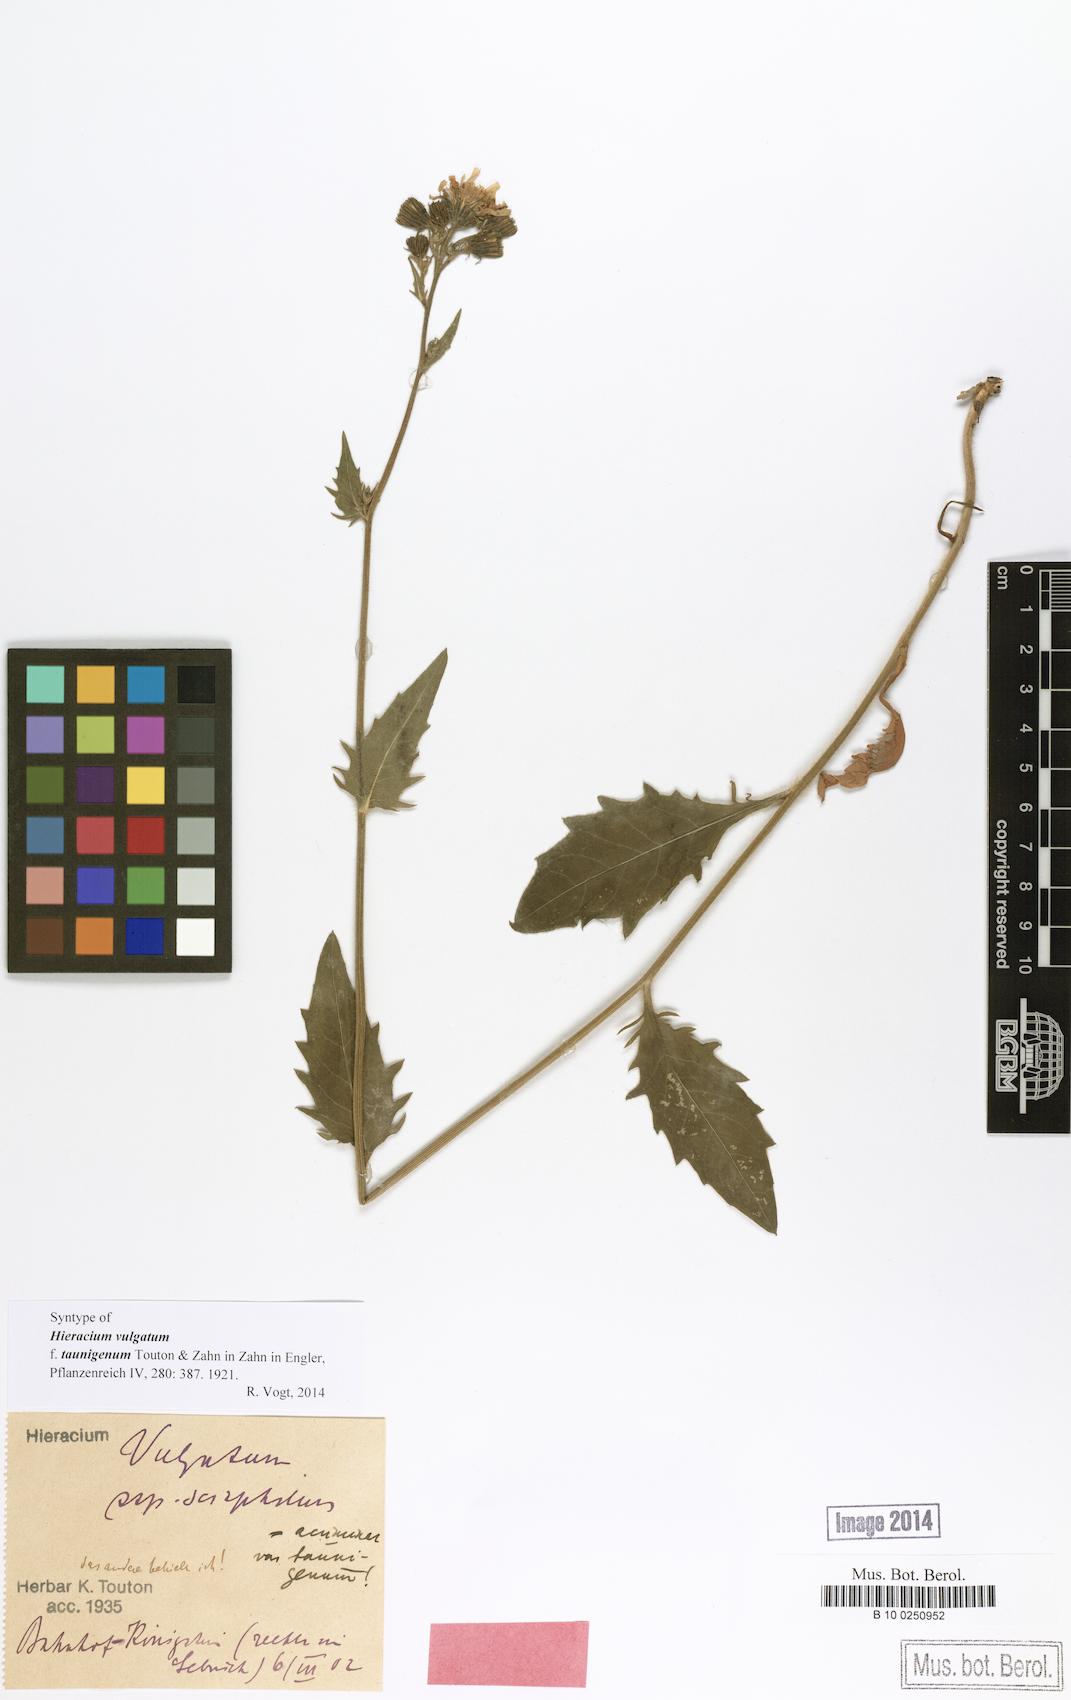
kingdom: Plantae
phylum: Tracheophyta
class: Magnoliopsida
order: Asterales
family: Asteraceae
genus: Hieracium
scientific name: Hieracium vulgatum
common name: Common hawkweed
